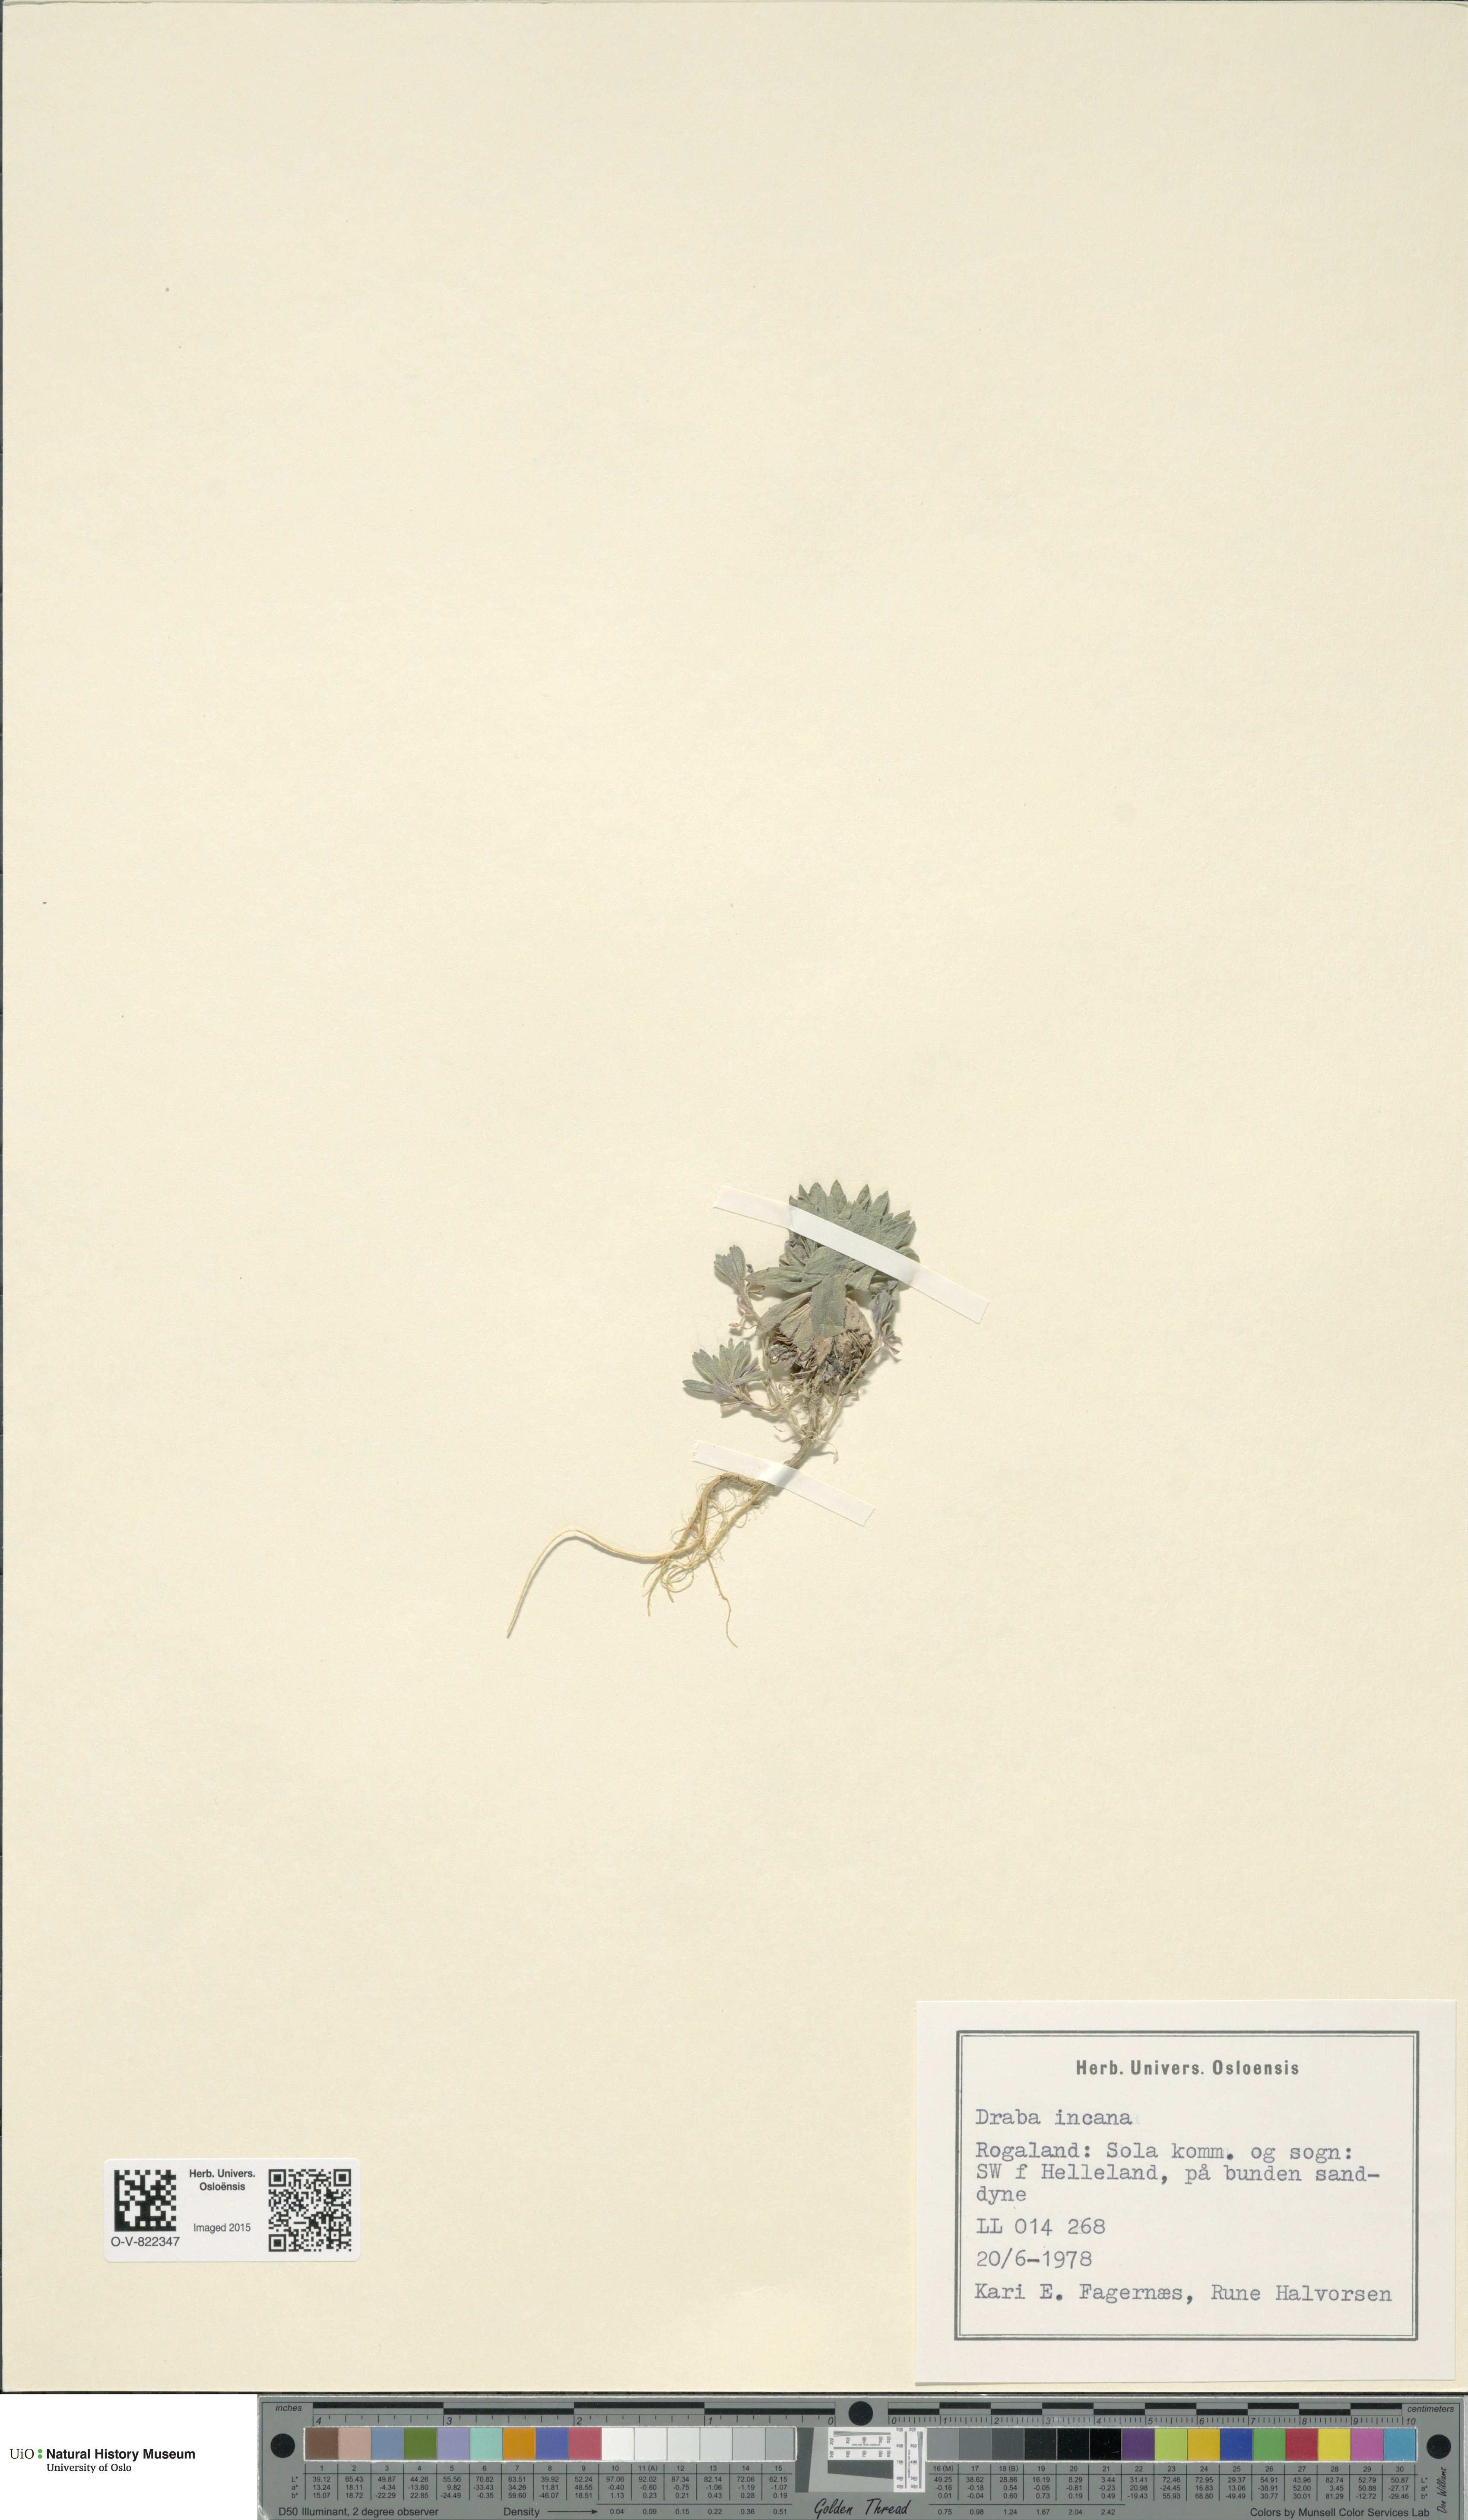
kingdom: Plantae
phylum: Tracheophyta
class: Magnoliopsida
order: Brassicales
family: Brassicaceae
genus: Draba
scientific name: Draba incana
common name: Hoary whitlow-grass
